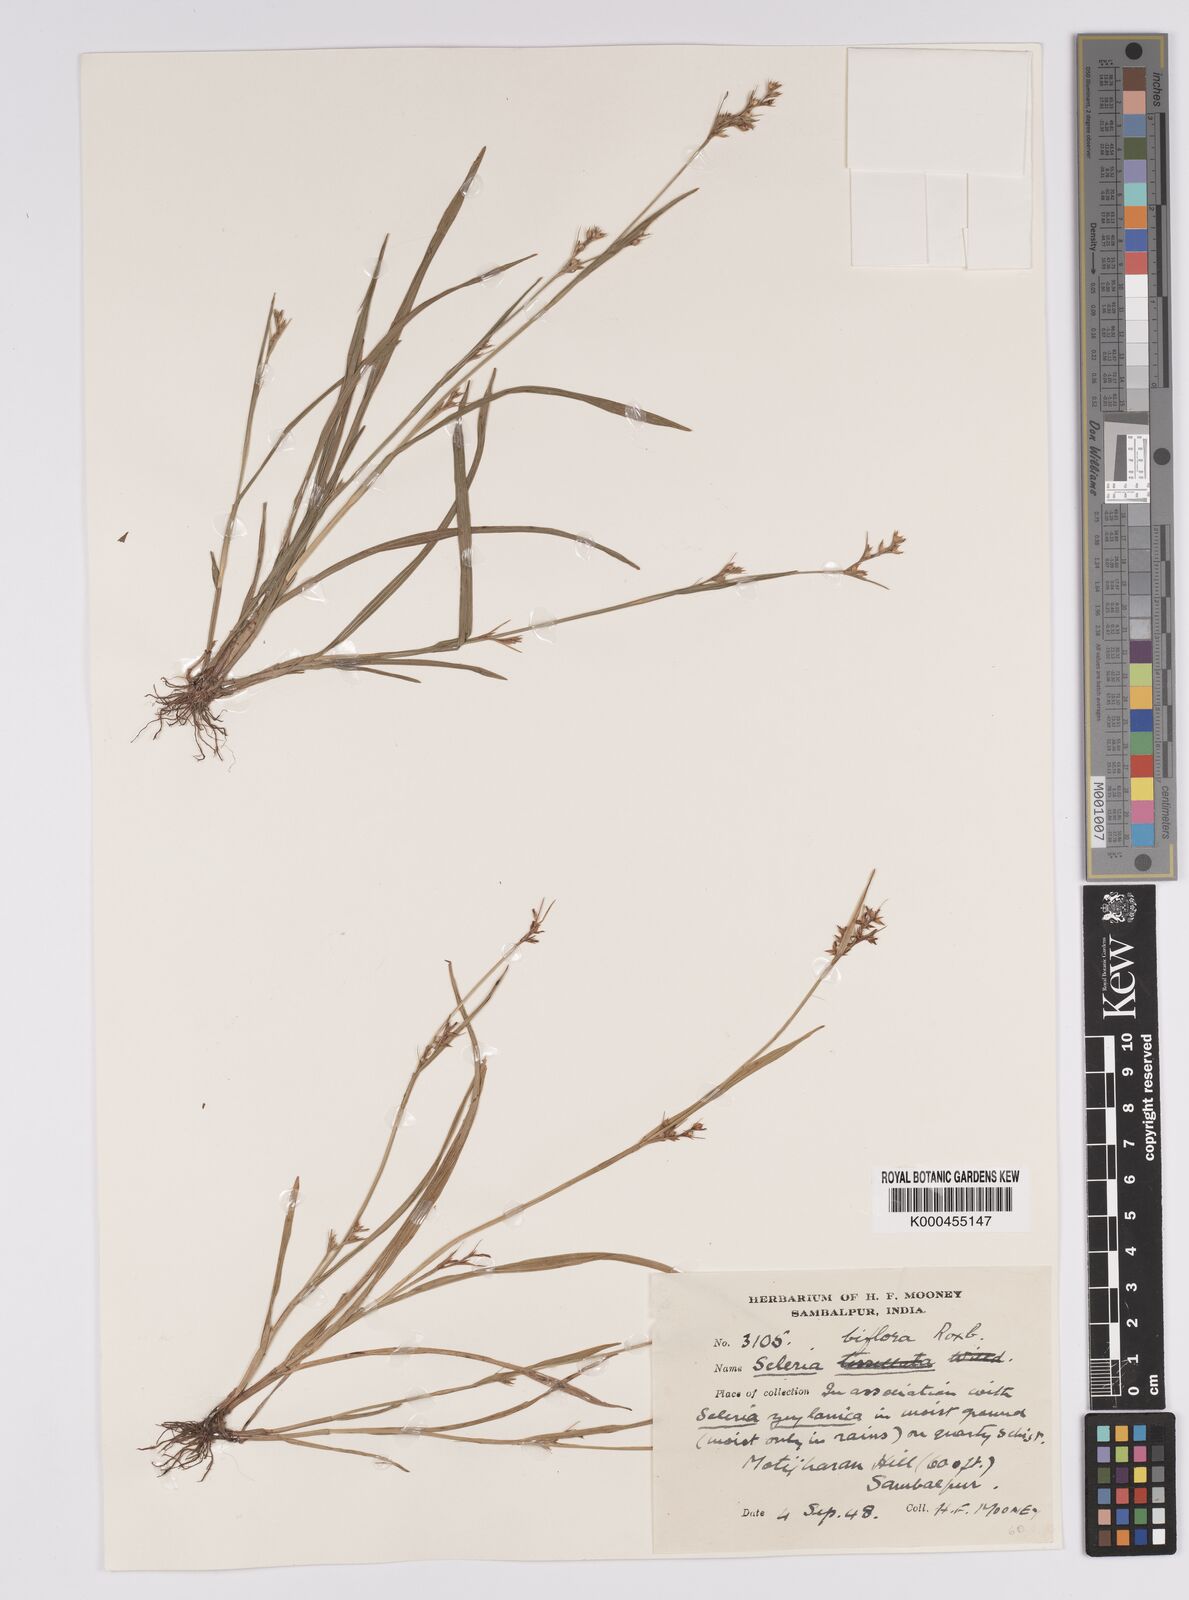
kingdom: Plantae
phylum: Tracheophyta
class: Liliopsida
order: Poales
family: Cyperaceae
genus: Scleria
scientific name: Scleria biflora
